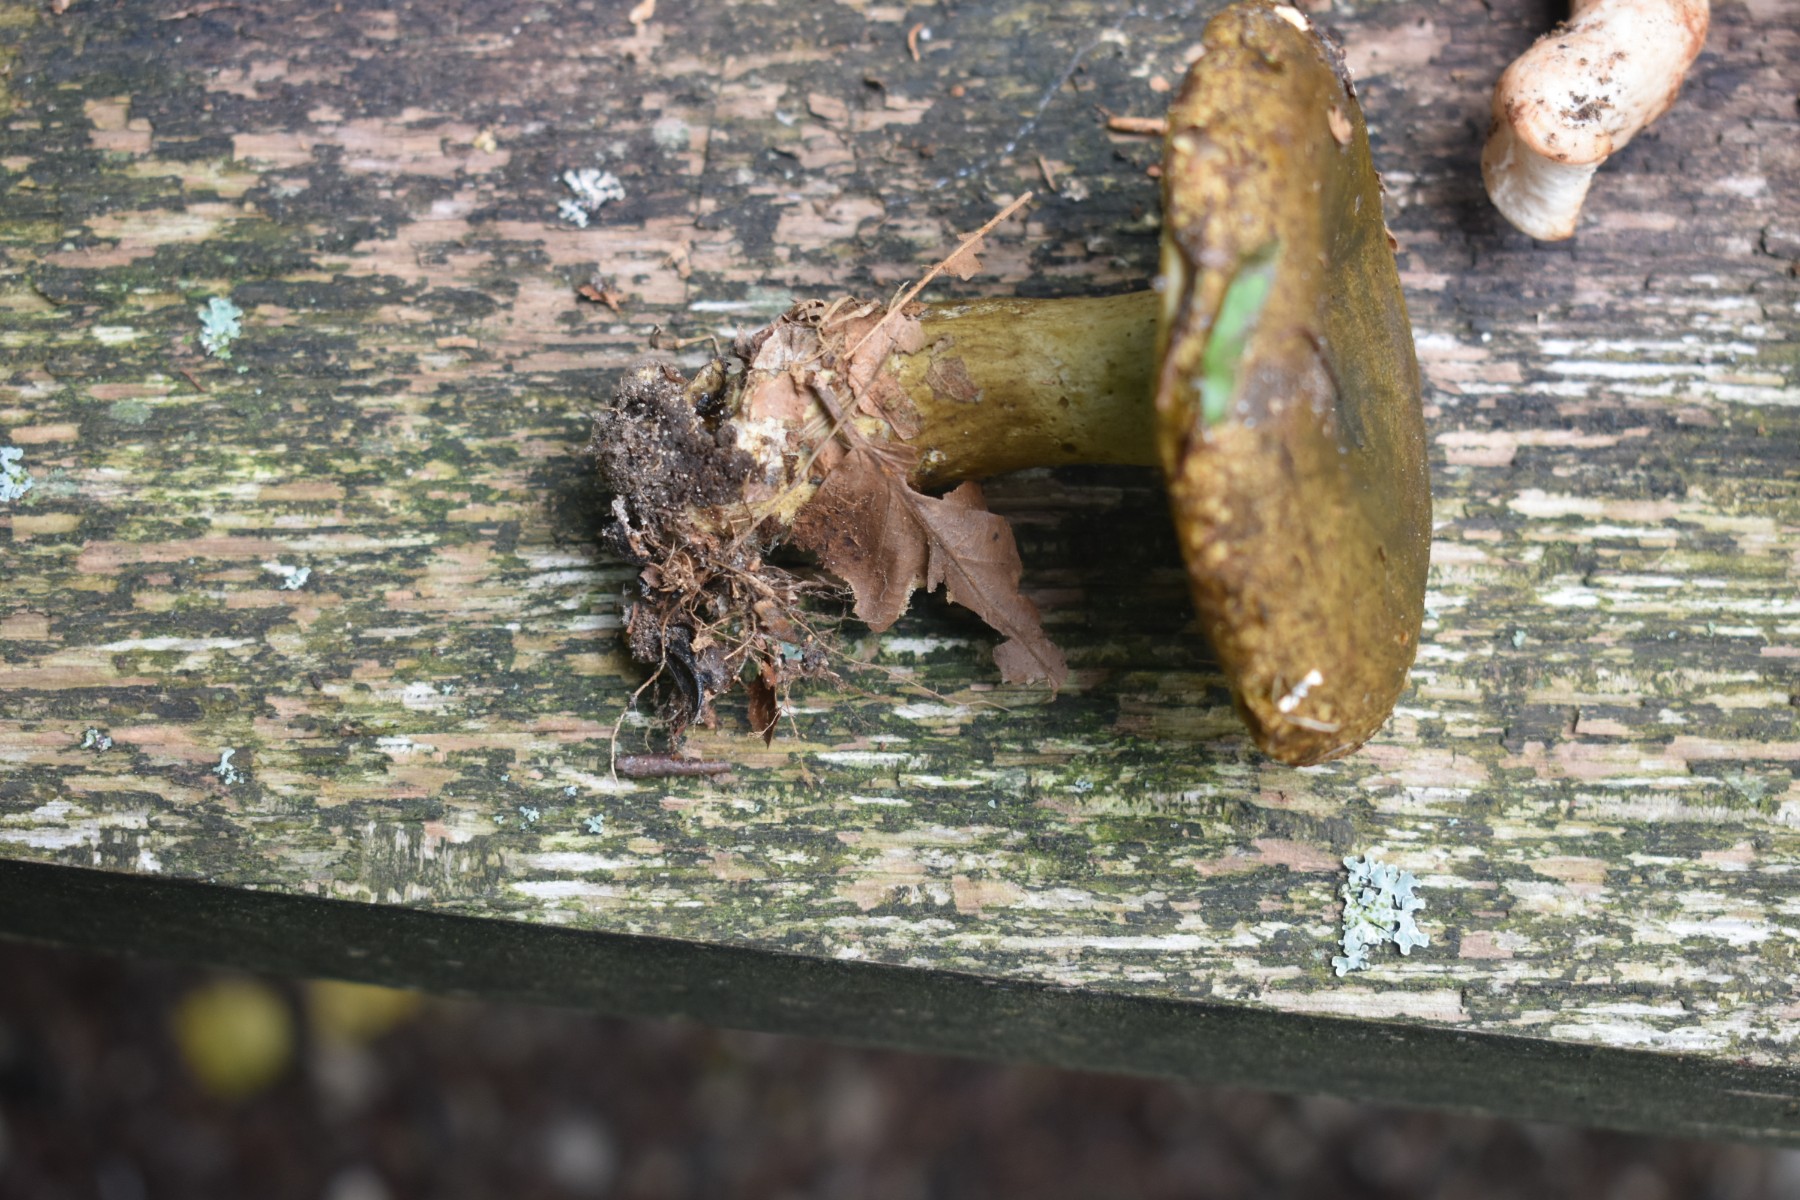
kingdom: Fungi
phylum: Basidiomycota
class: Agaricomycetes
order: Russulales
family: Russulaceae
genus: Lactarius
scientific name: Lactarius necator
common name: manddraber-mælkehat
